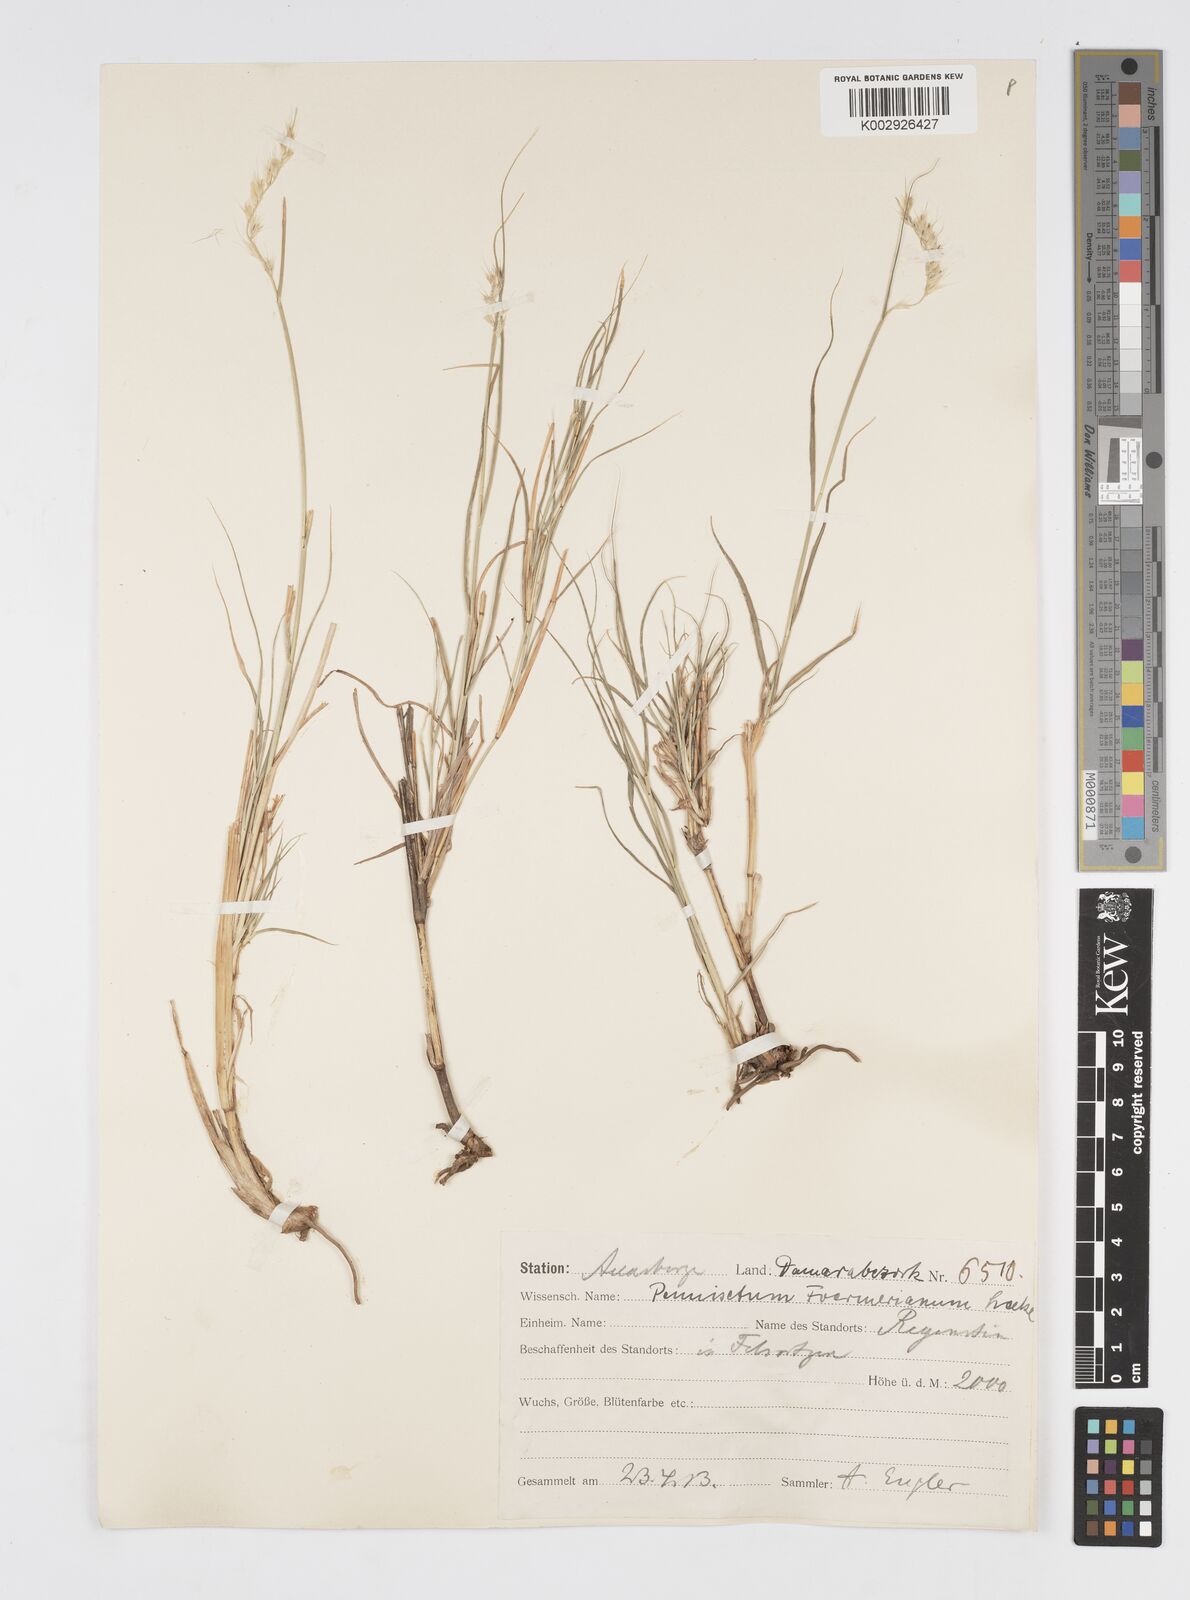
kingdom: Plantae
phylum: Tracheophyta
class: Liliopsida
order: Poales
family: Poaceae
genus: Cenchrus
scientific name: Cenchrus foermerianus
